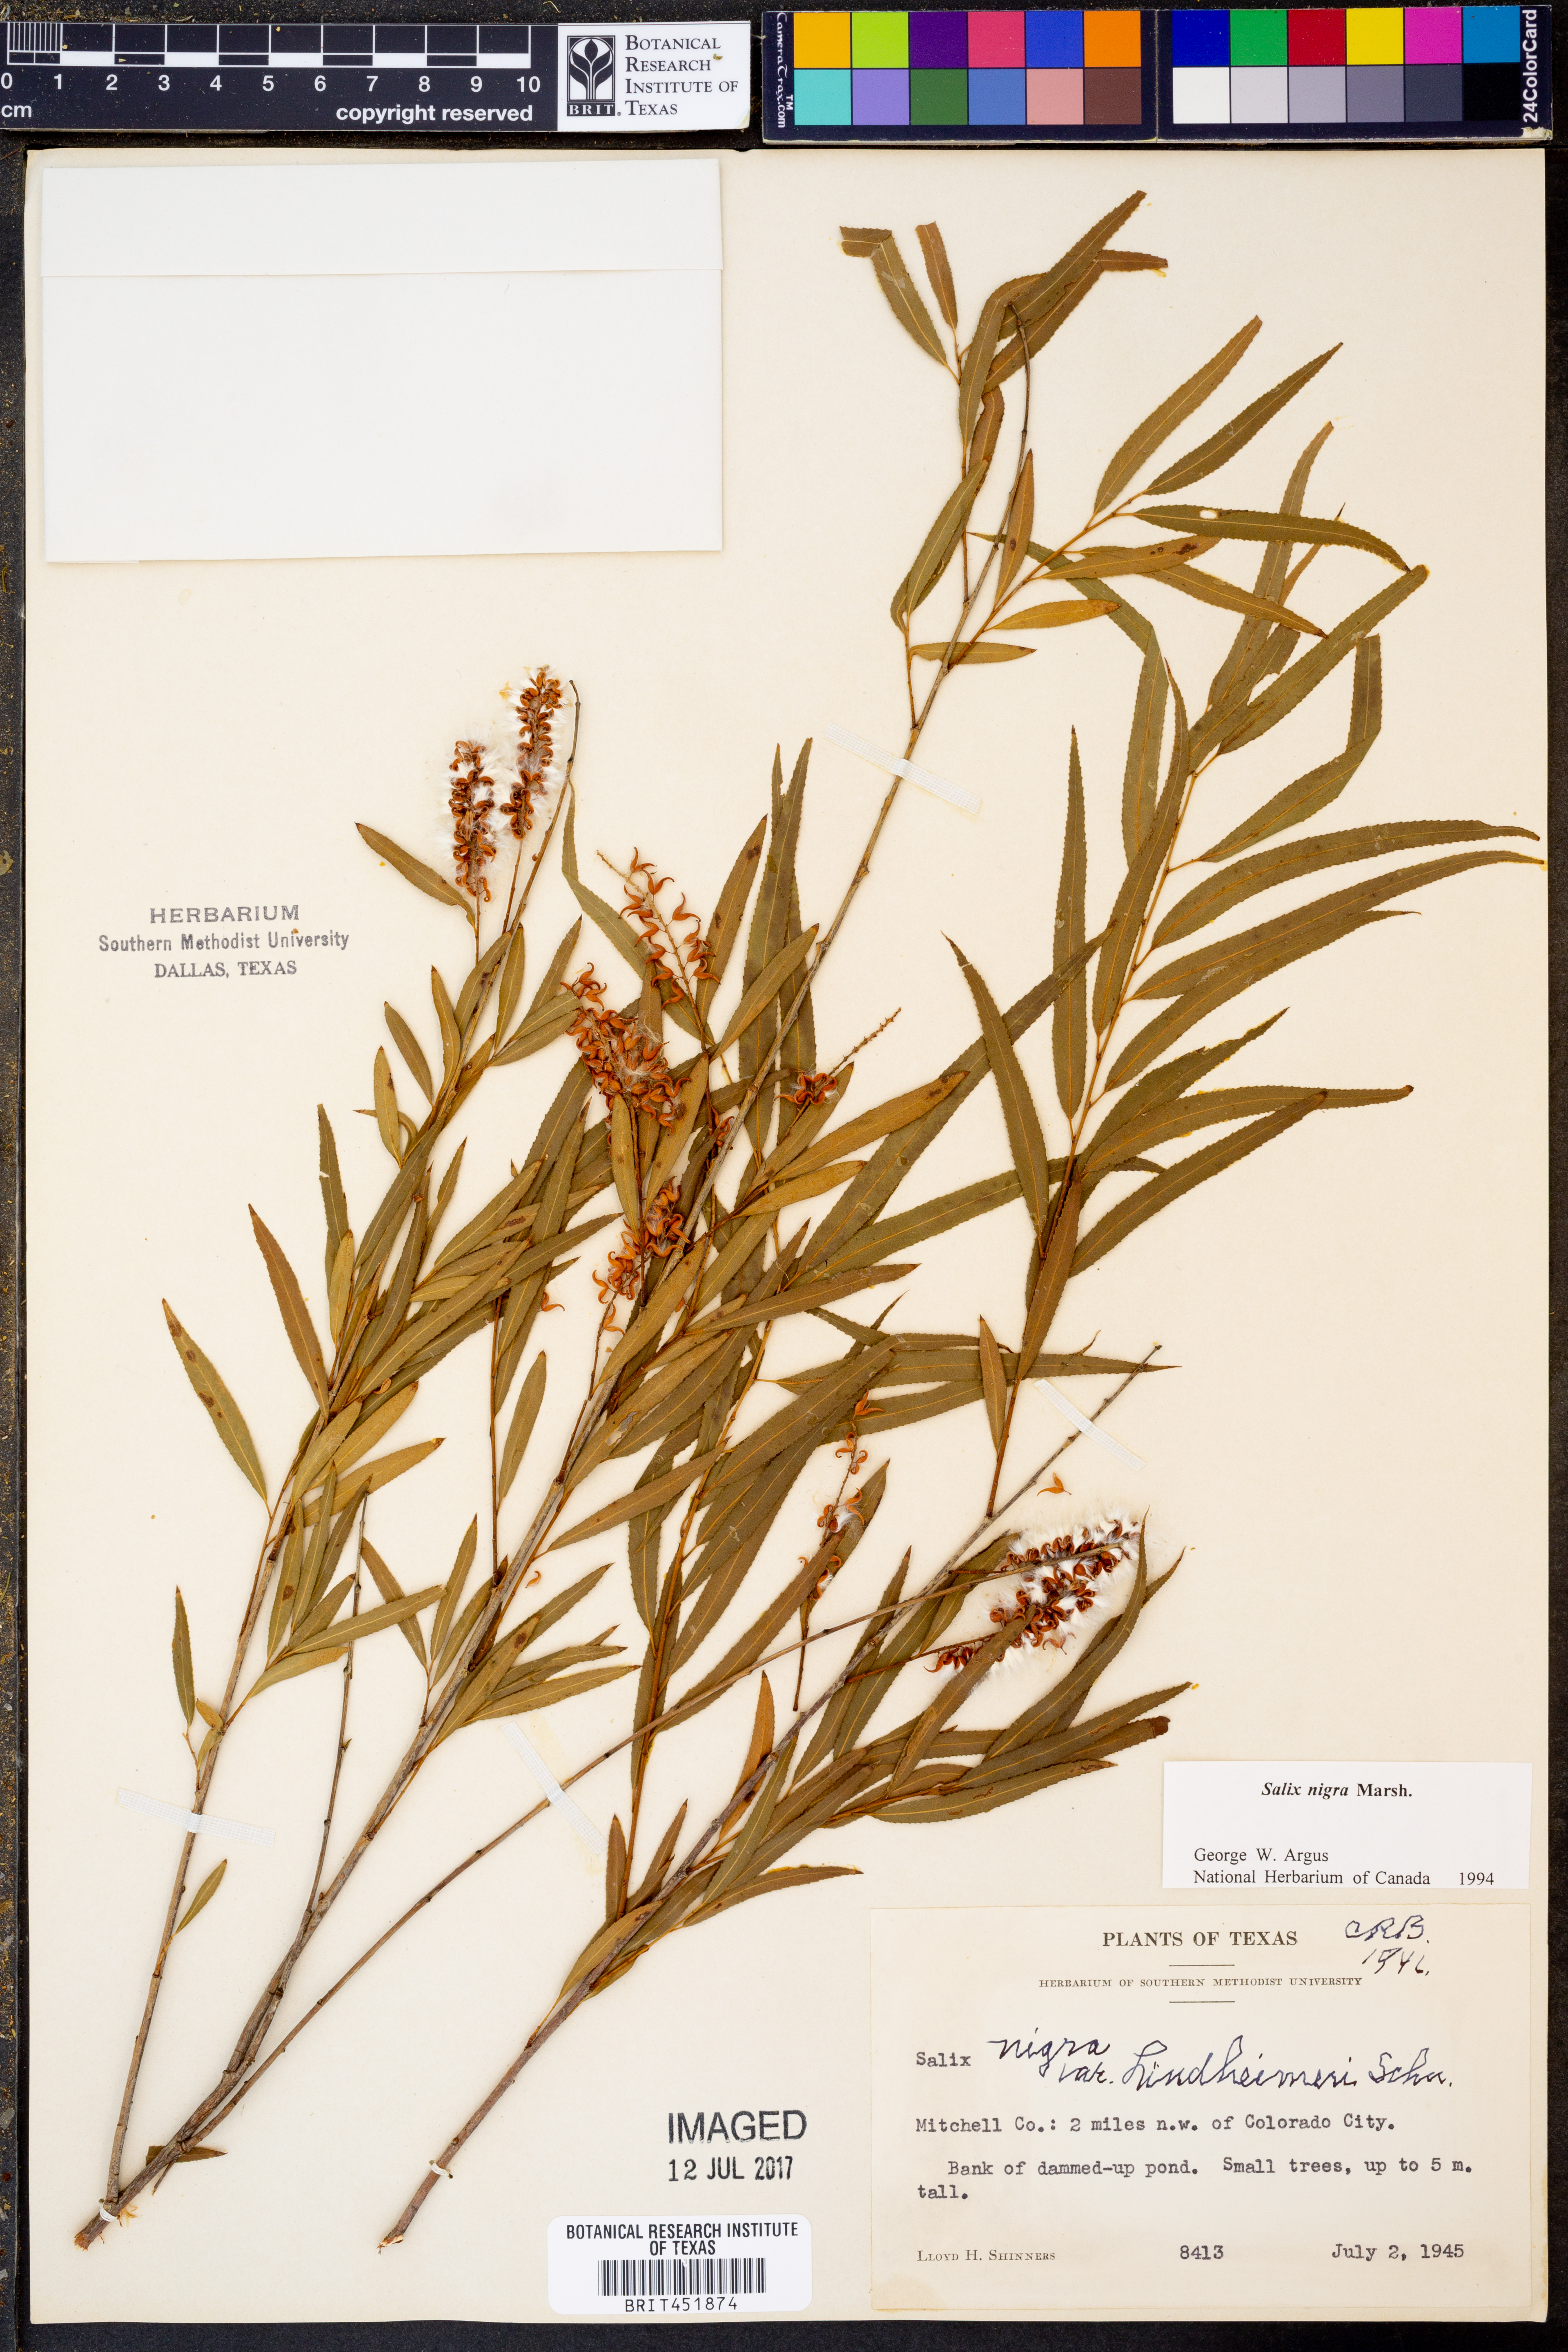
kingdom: Plantae
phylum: Tracheophyta
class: Magnoliopsida
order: Malpighiales
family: Salicaceae
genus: Salix
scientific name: Salix nigra
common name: Black willow
